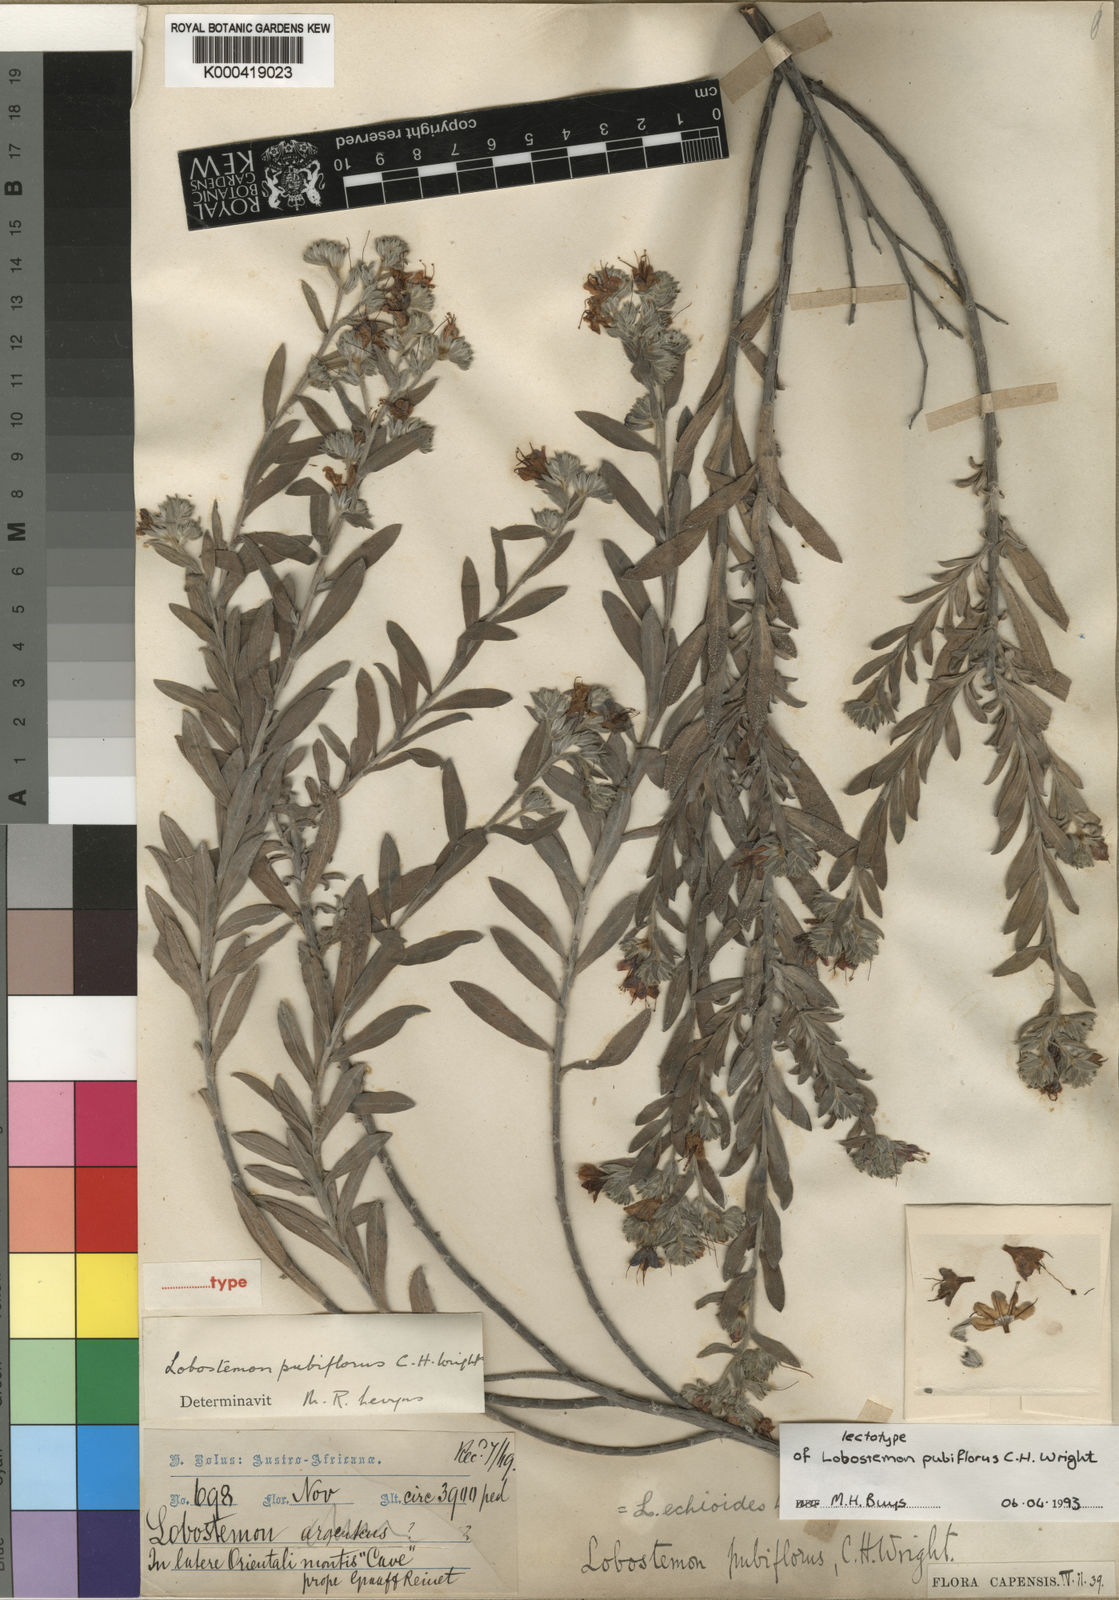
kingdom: Plantae
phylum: Tracheophyta
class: Magnoliopsida
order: Boraginales
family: Boraginaceae
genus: Lobostemon
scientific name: Lobostemon echioides
